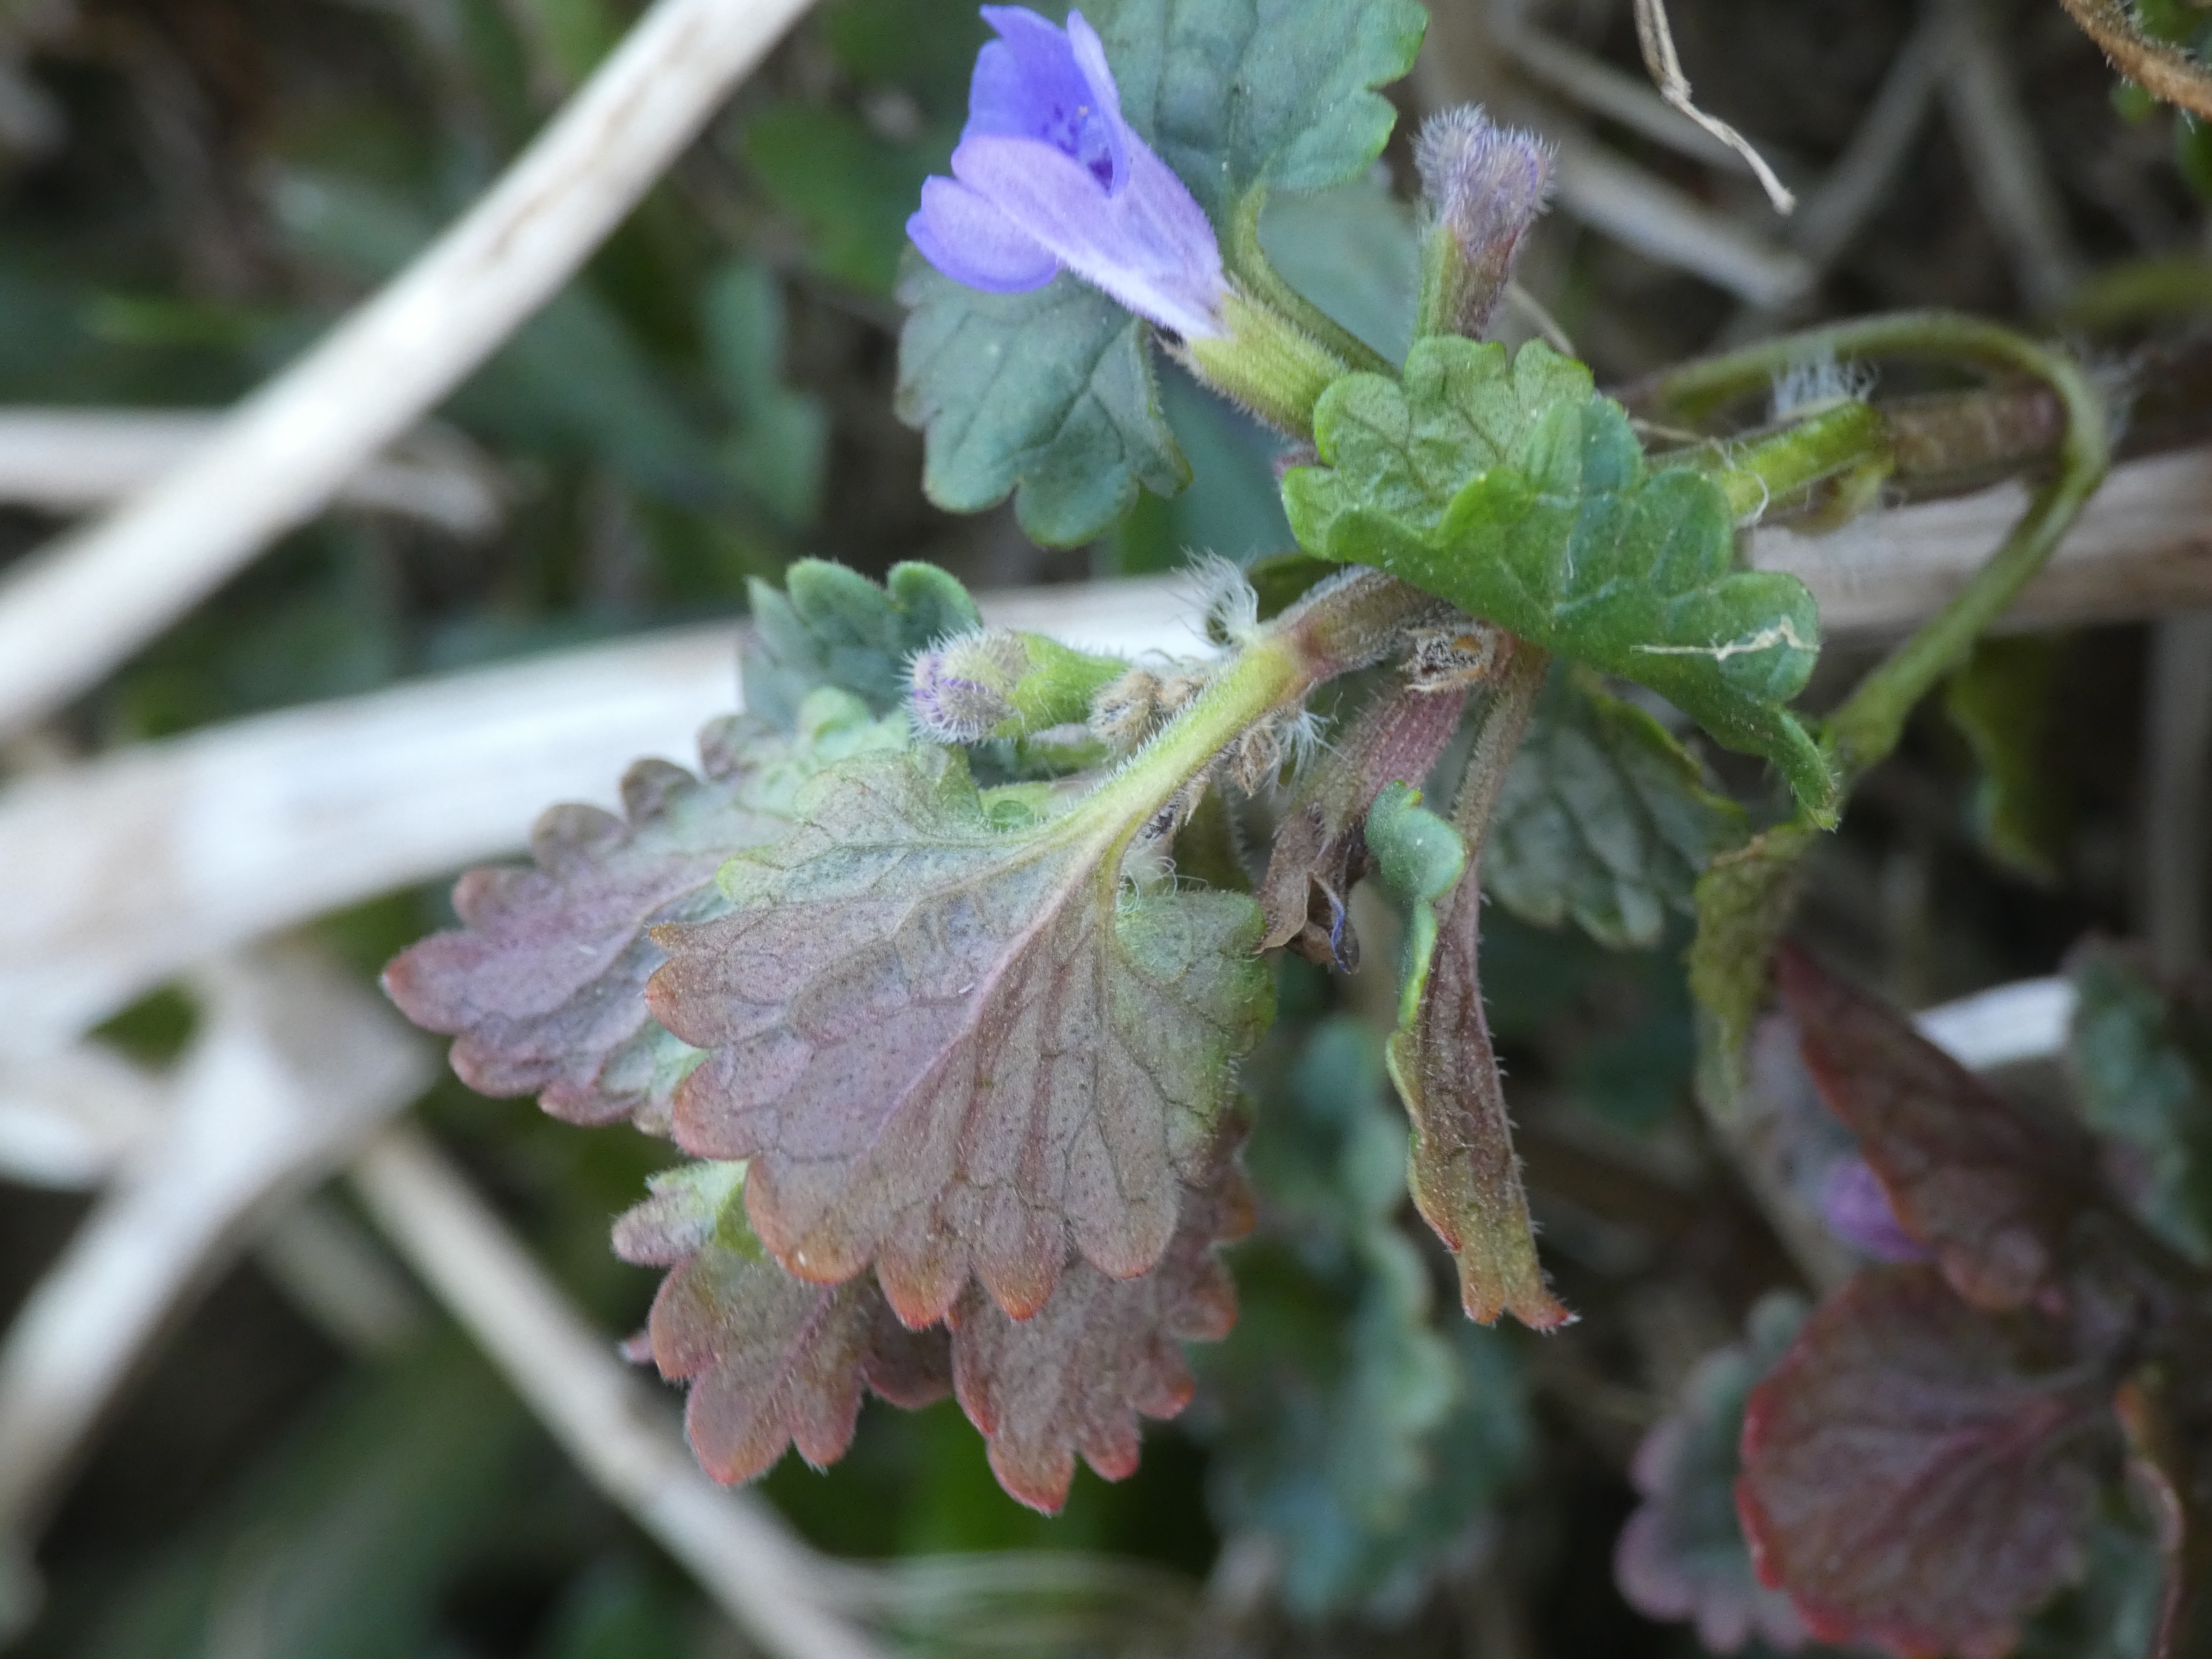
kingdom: Plantae
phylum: Tracheophyta
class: Magnoliopsida
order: Lamiales
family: Lamiaceae
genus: Glechoma
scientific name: Glechoma hederacea
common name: Korsknap
